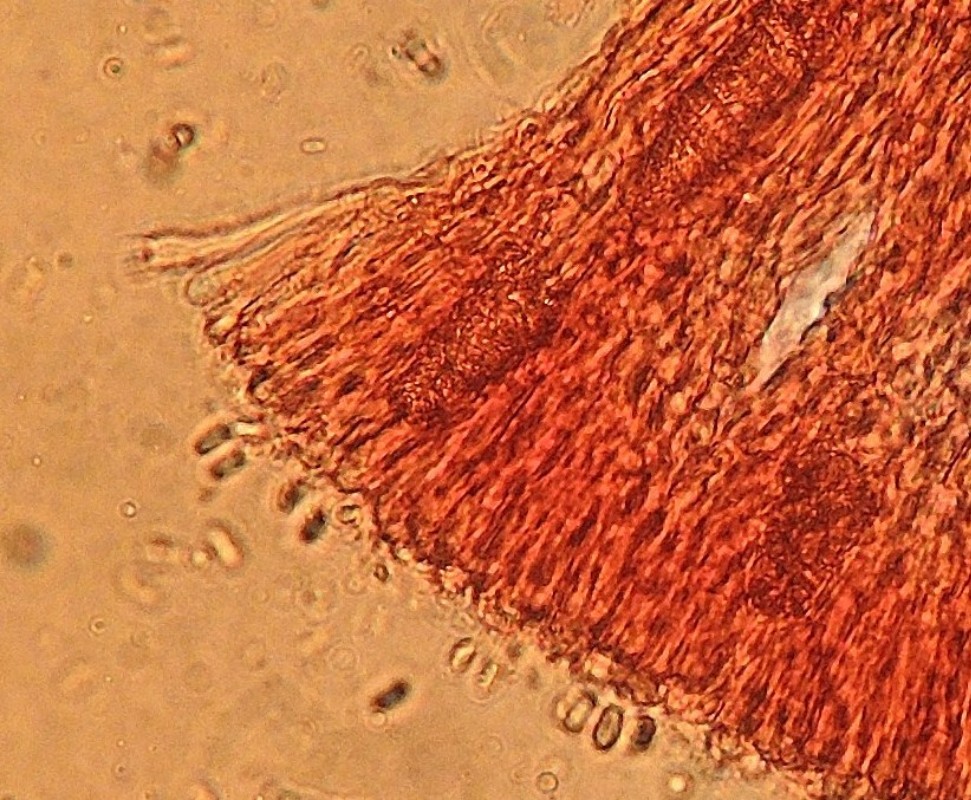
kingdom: Fungi
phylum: Basidiomycota
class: Agaricomycetes
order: Polyporales
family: Phanerochaetaceae
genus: Phlebiopsis
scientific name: Phlebiopsis gigantea
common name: kæmpebarksvamp
